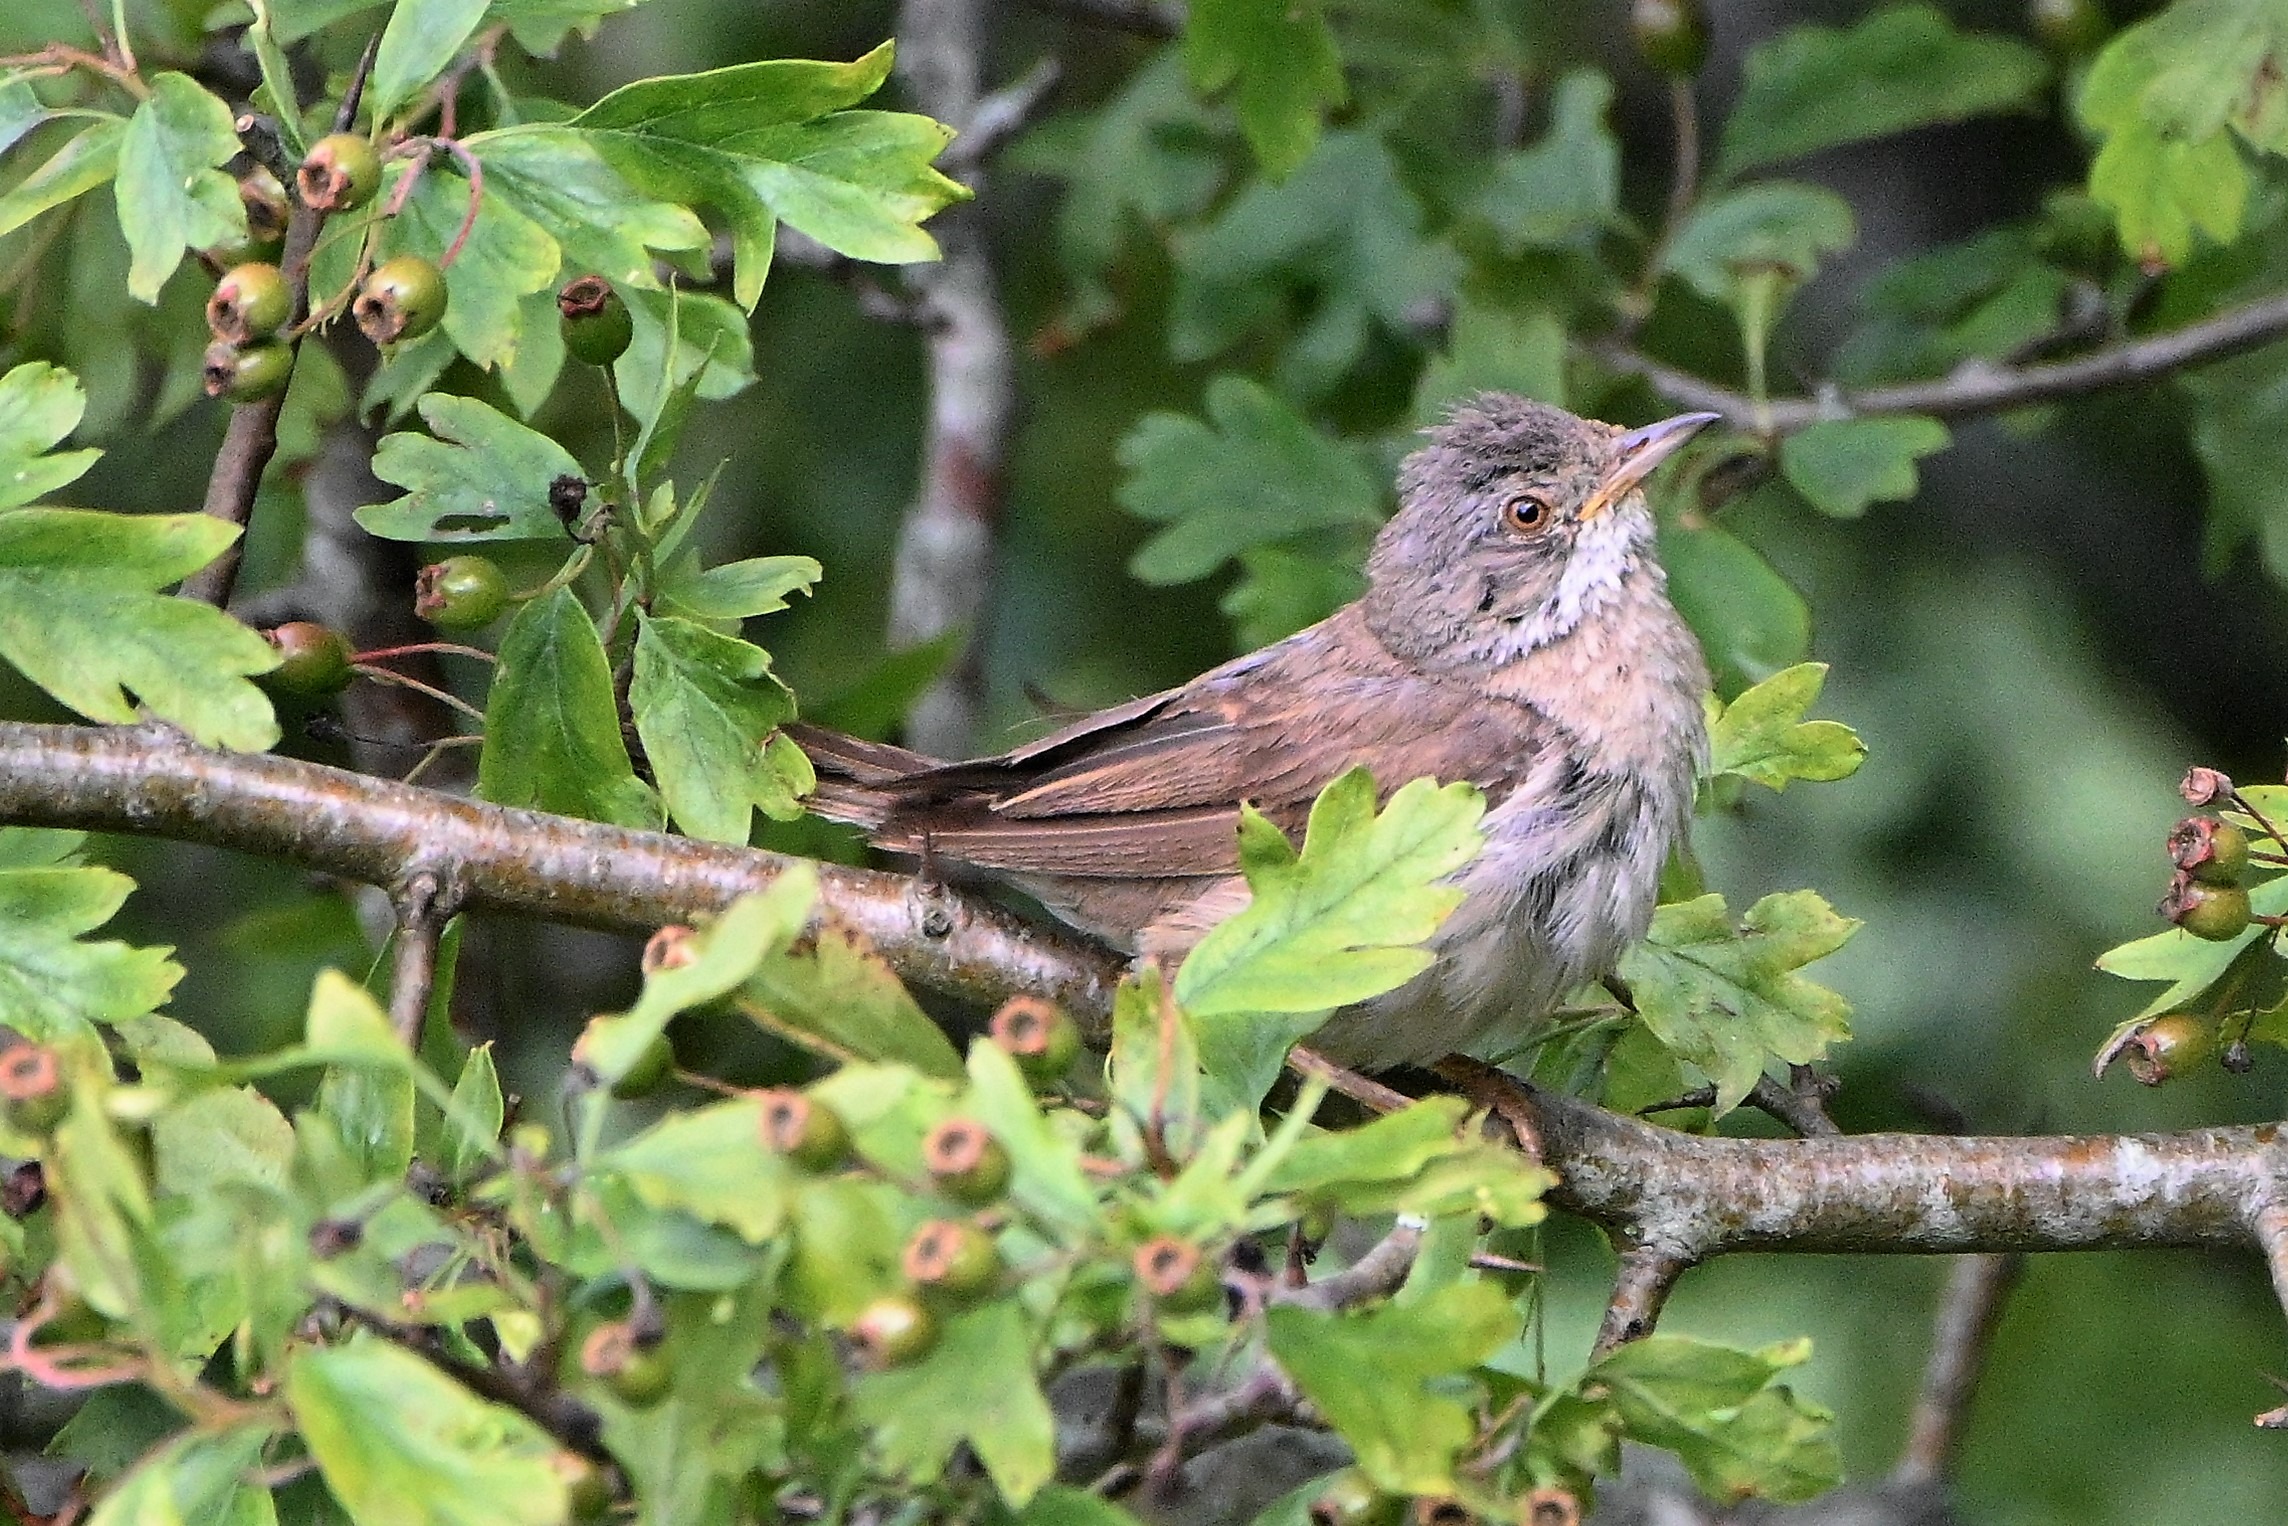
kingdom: Animalia
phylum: Chordata
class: Aves
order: Passeriformes
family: Sylviidae
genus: Sylvia
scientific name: Sylvia communis
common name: Tornsanger
